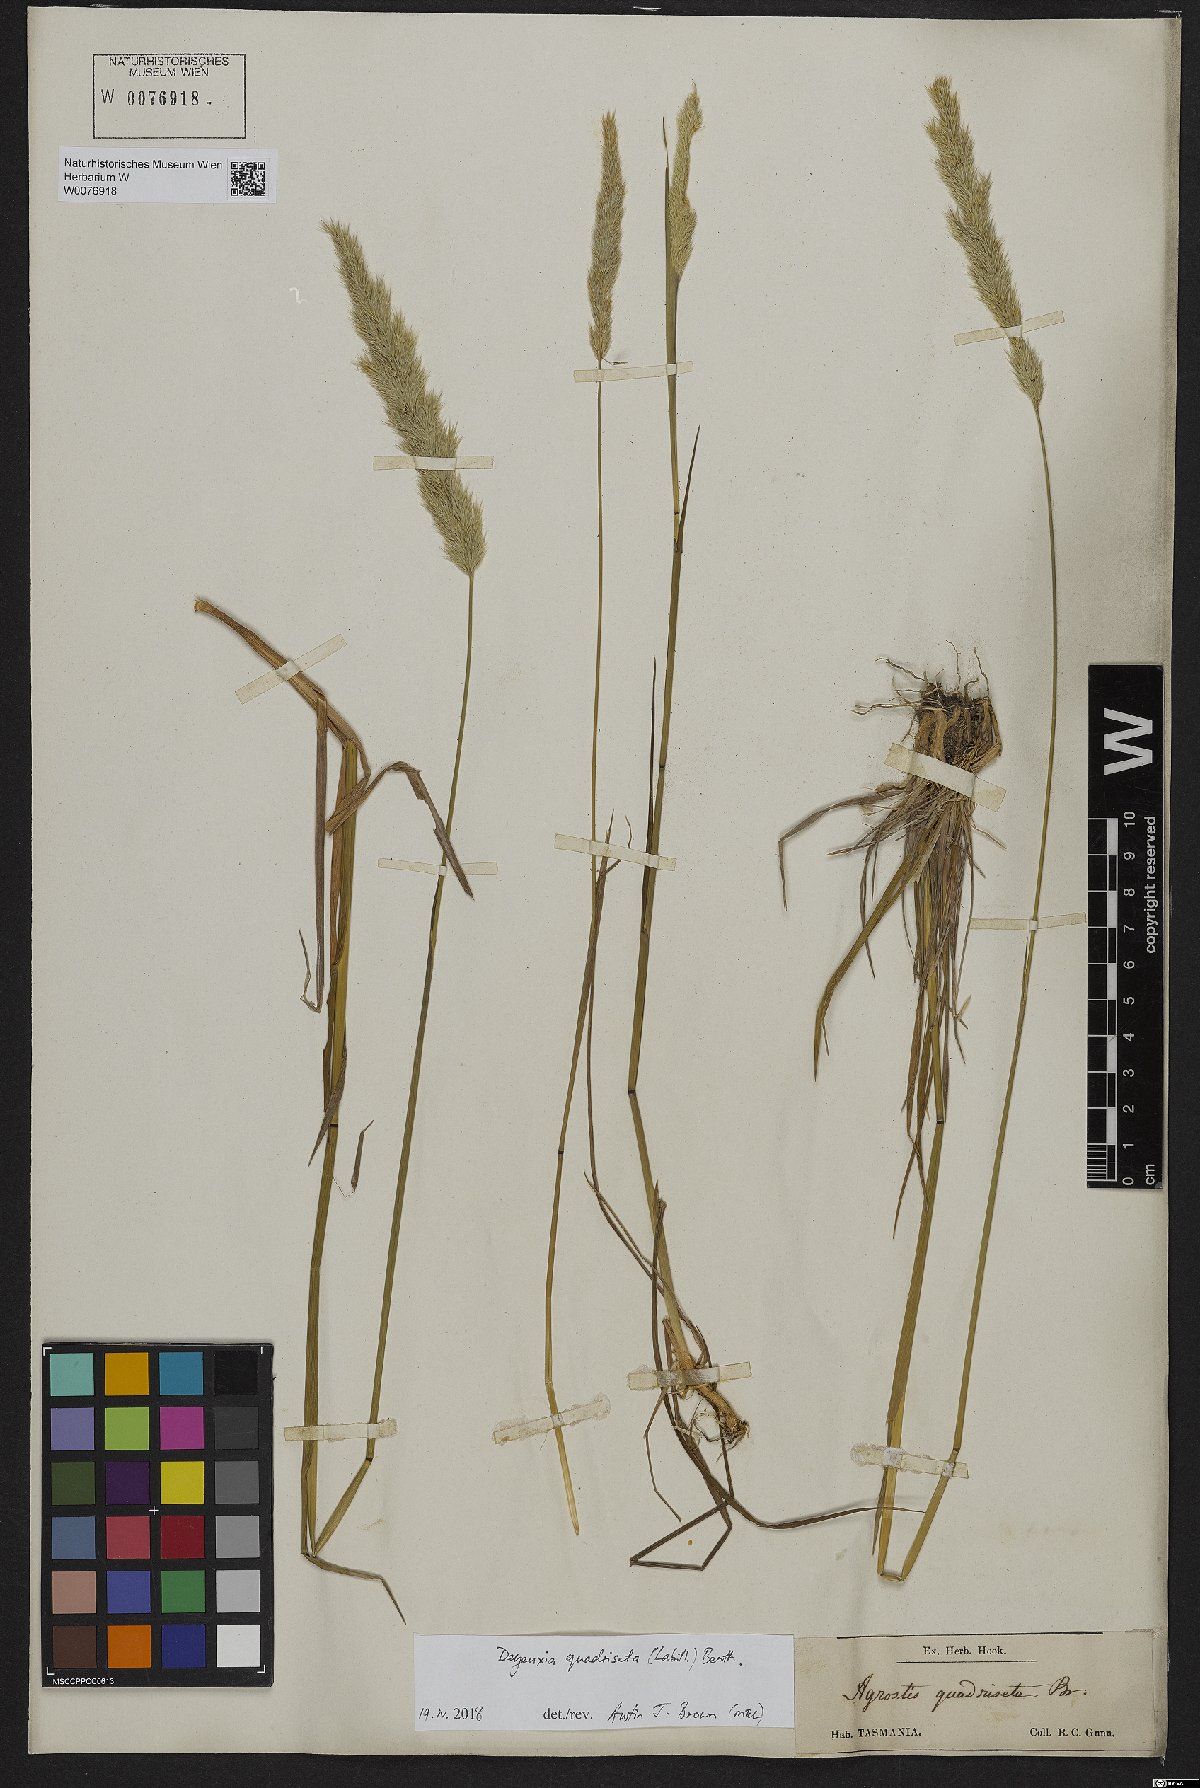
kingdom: Plantae
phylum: Tracheophyta
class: Liliopsida
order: Poales
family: Poaceae
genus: Calamagrostis
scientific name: Calamagrostis quadriseta
